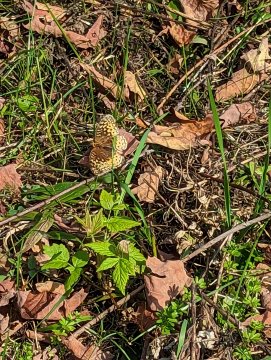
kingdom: Animalia
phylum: Arthropoda
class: Insecta
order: Lepidoptera
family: Nymphalidae
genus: Speyeria
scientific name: Speyeria cybele
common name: Great Spangled Fritillary
